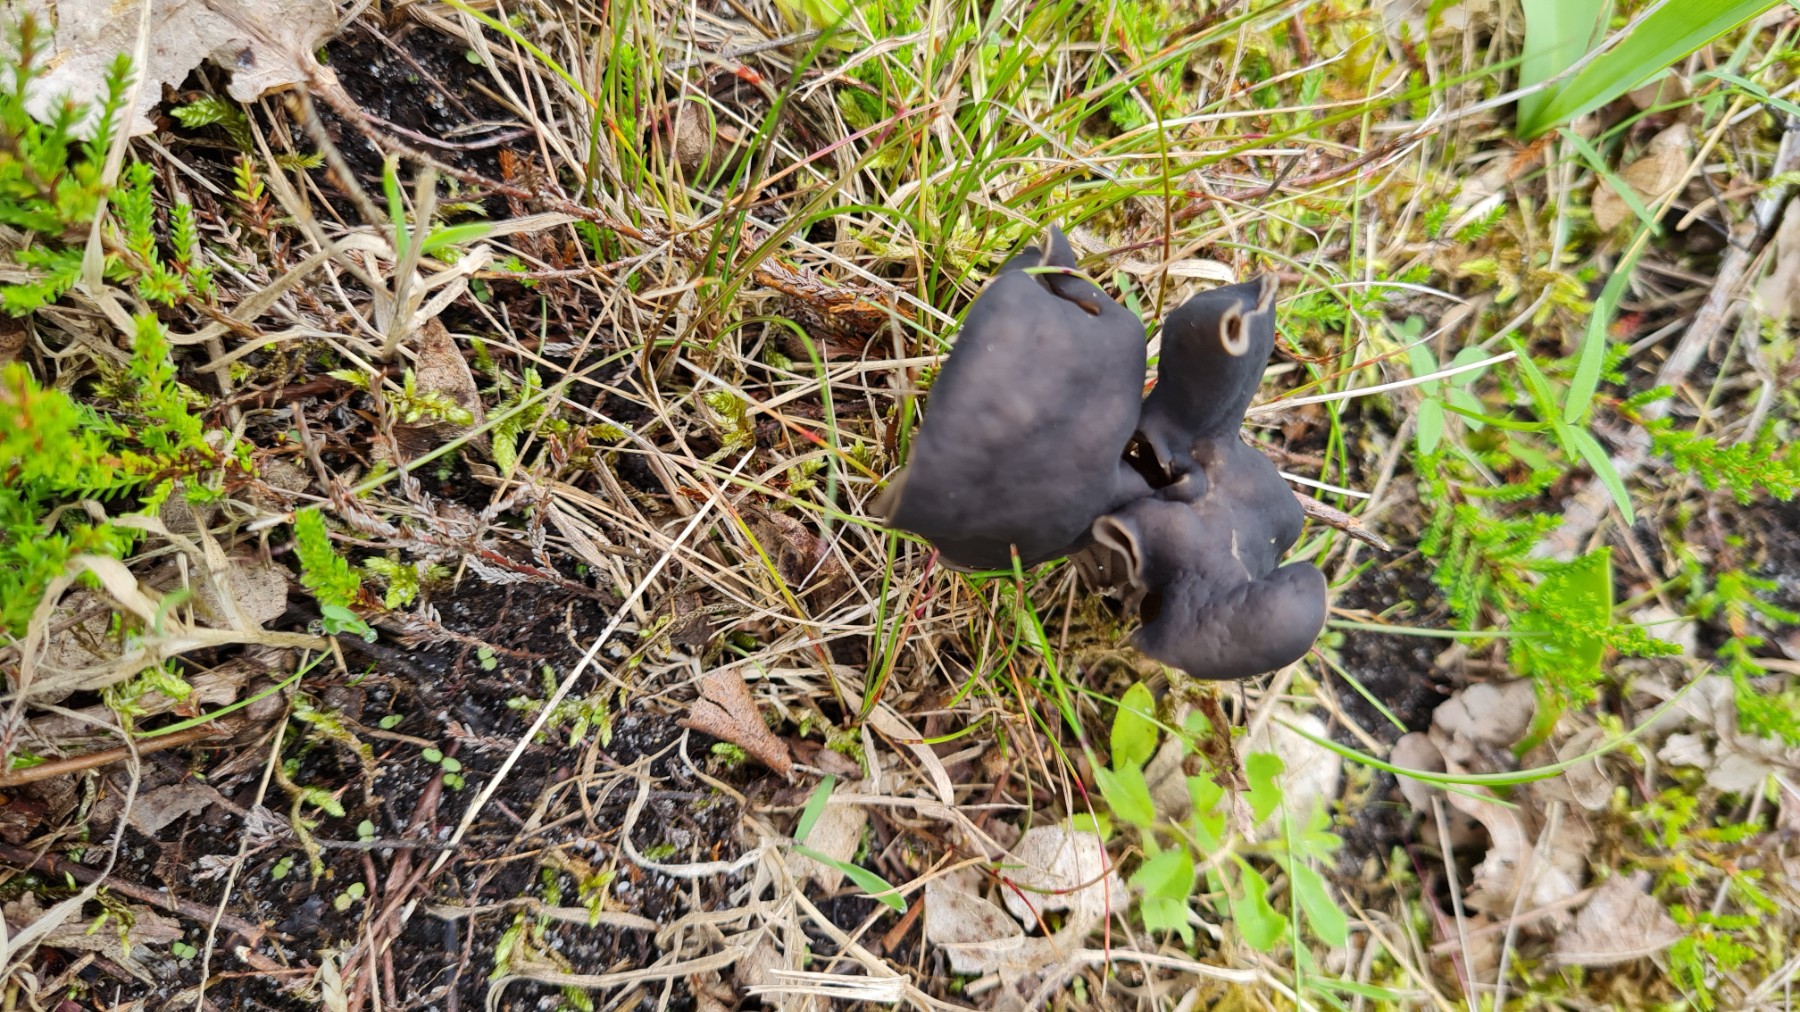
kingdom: Fungi
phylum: Ascomycota
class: Pezizomycetes
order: Pezizales
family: Helvellaceae
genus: Helvella
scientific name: Helvella lacunosa
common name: grubet foldhat
